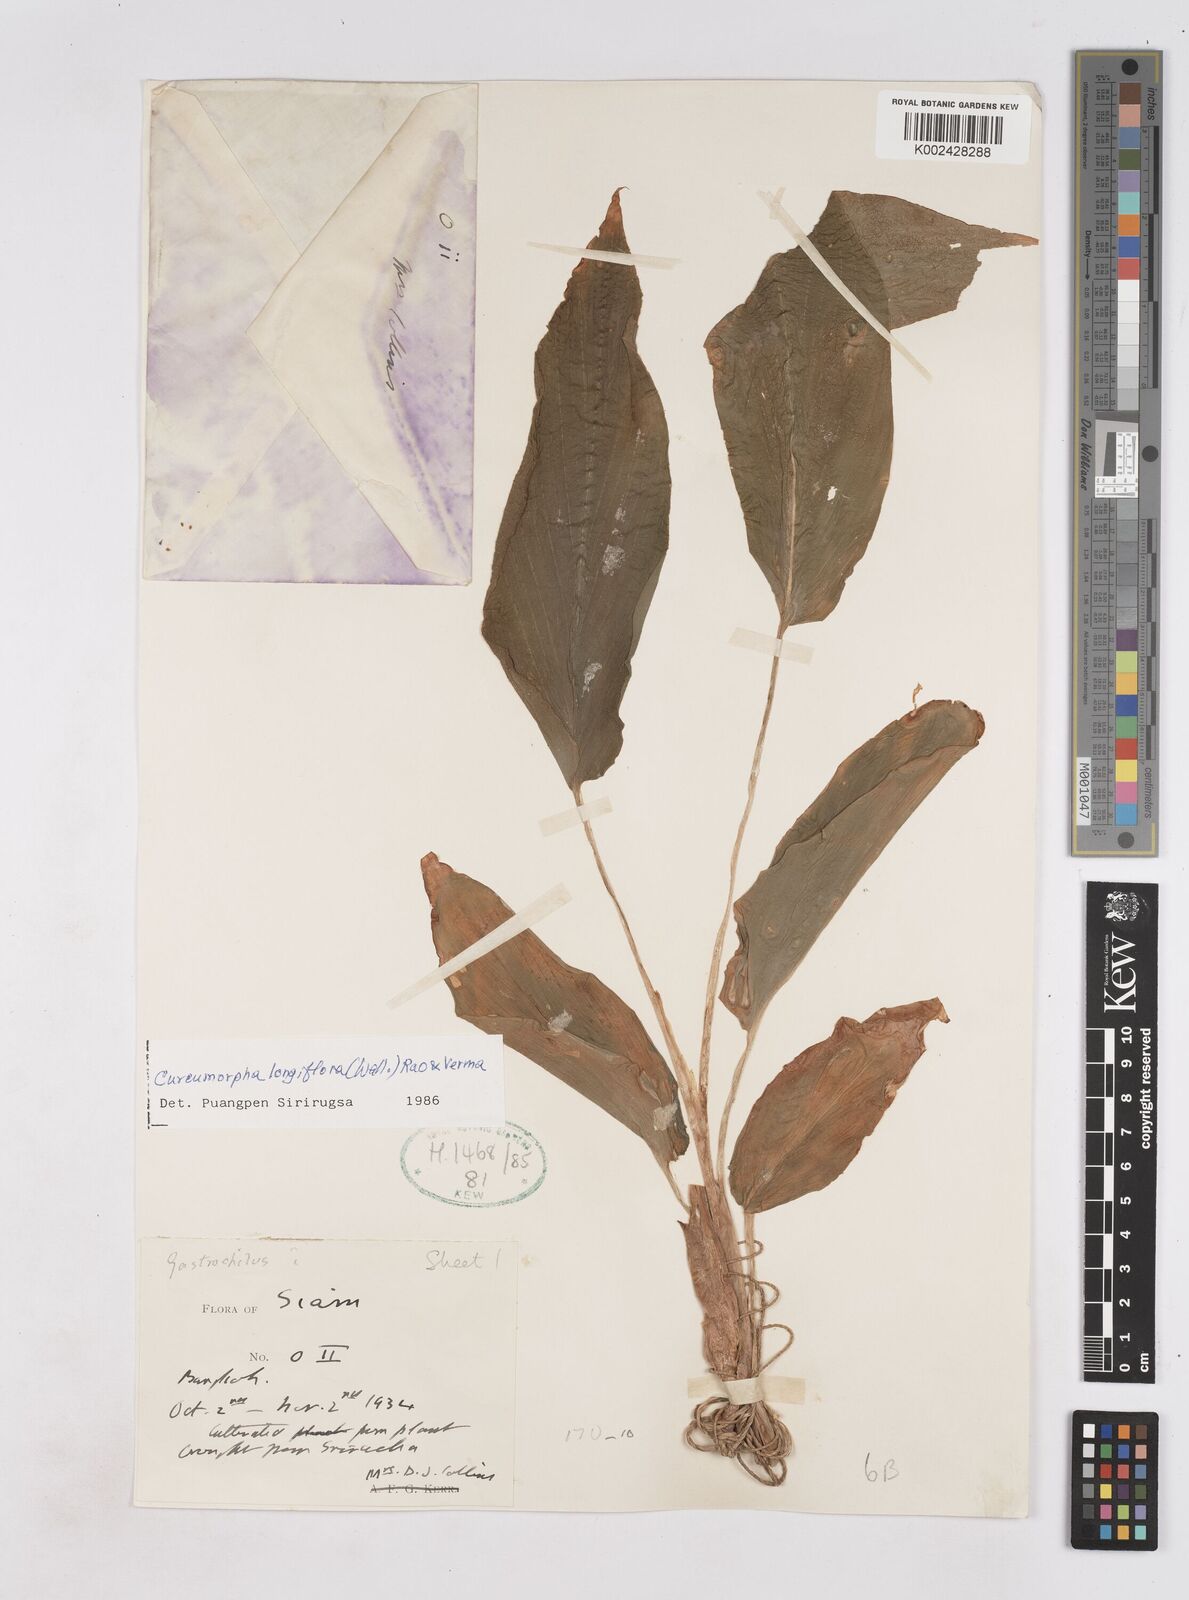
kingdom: Plantae
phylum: Tracheophyta
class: Liliopsida
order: Zingiberales
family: Zingiberaceae
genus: Boesenbergia
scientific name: Boesenbergia longiflora
